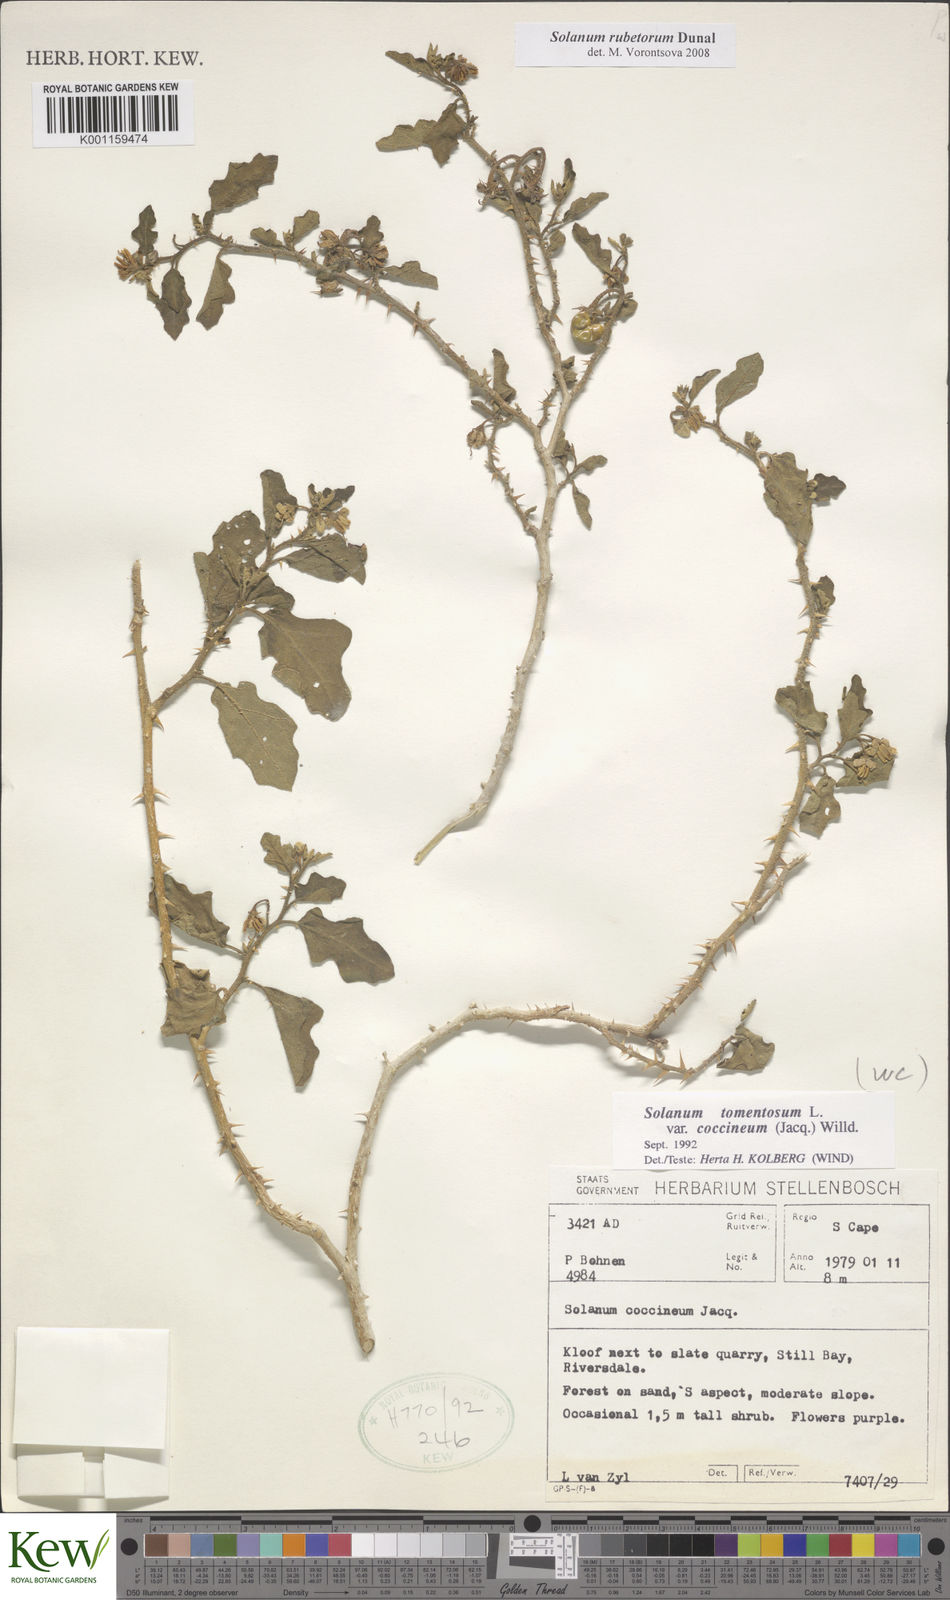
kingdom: Plantae
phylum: Tracheophyta
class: Magnoliopsida
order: Solanales
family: Solanaceae
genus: Solanum
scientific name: Solanum rubetorum
